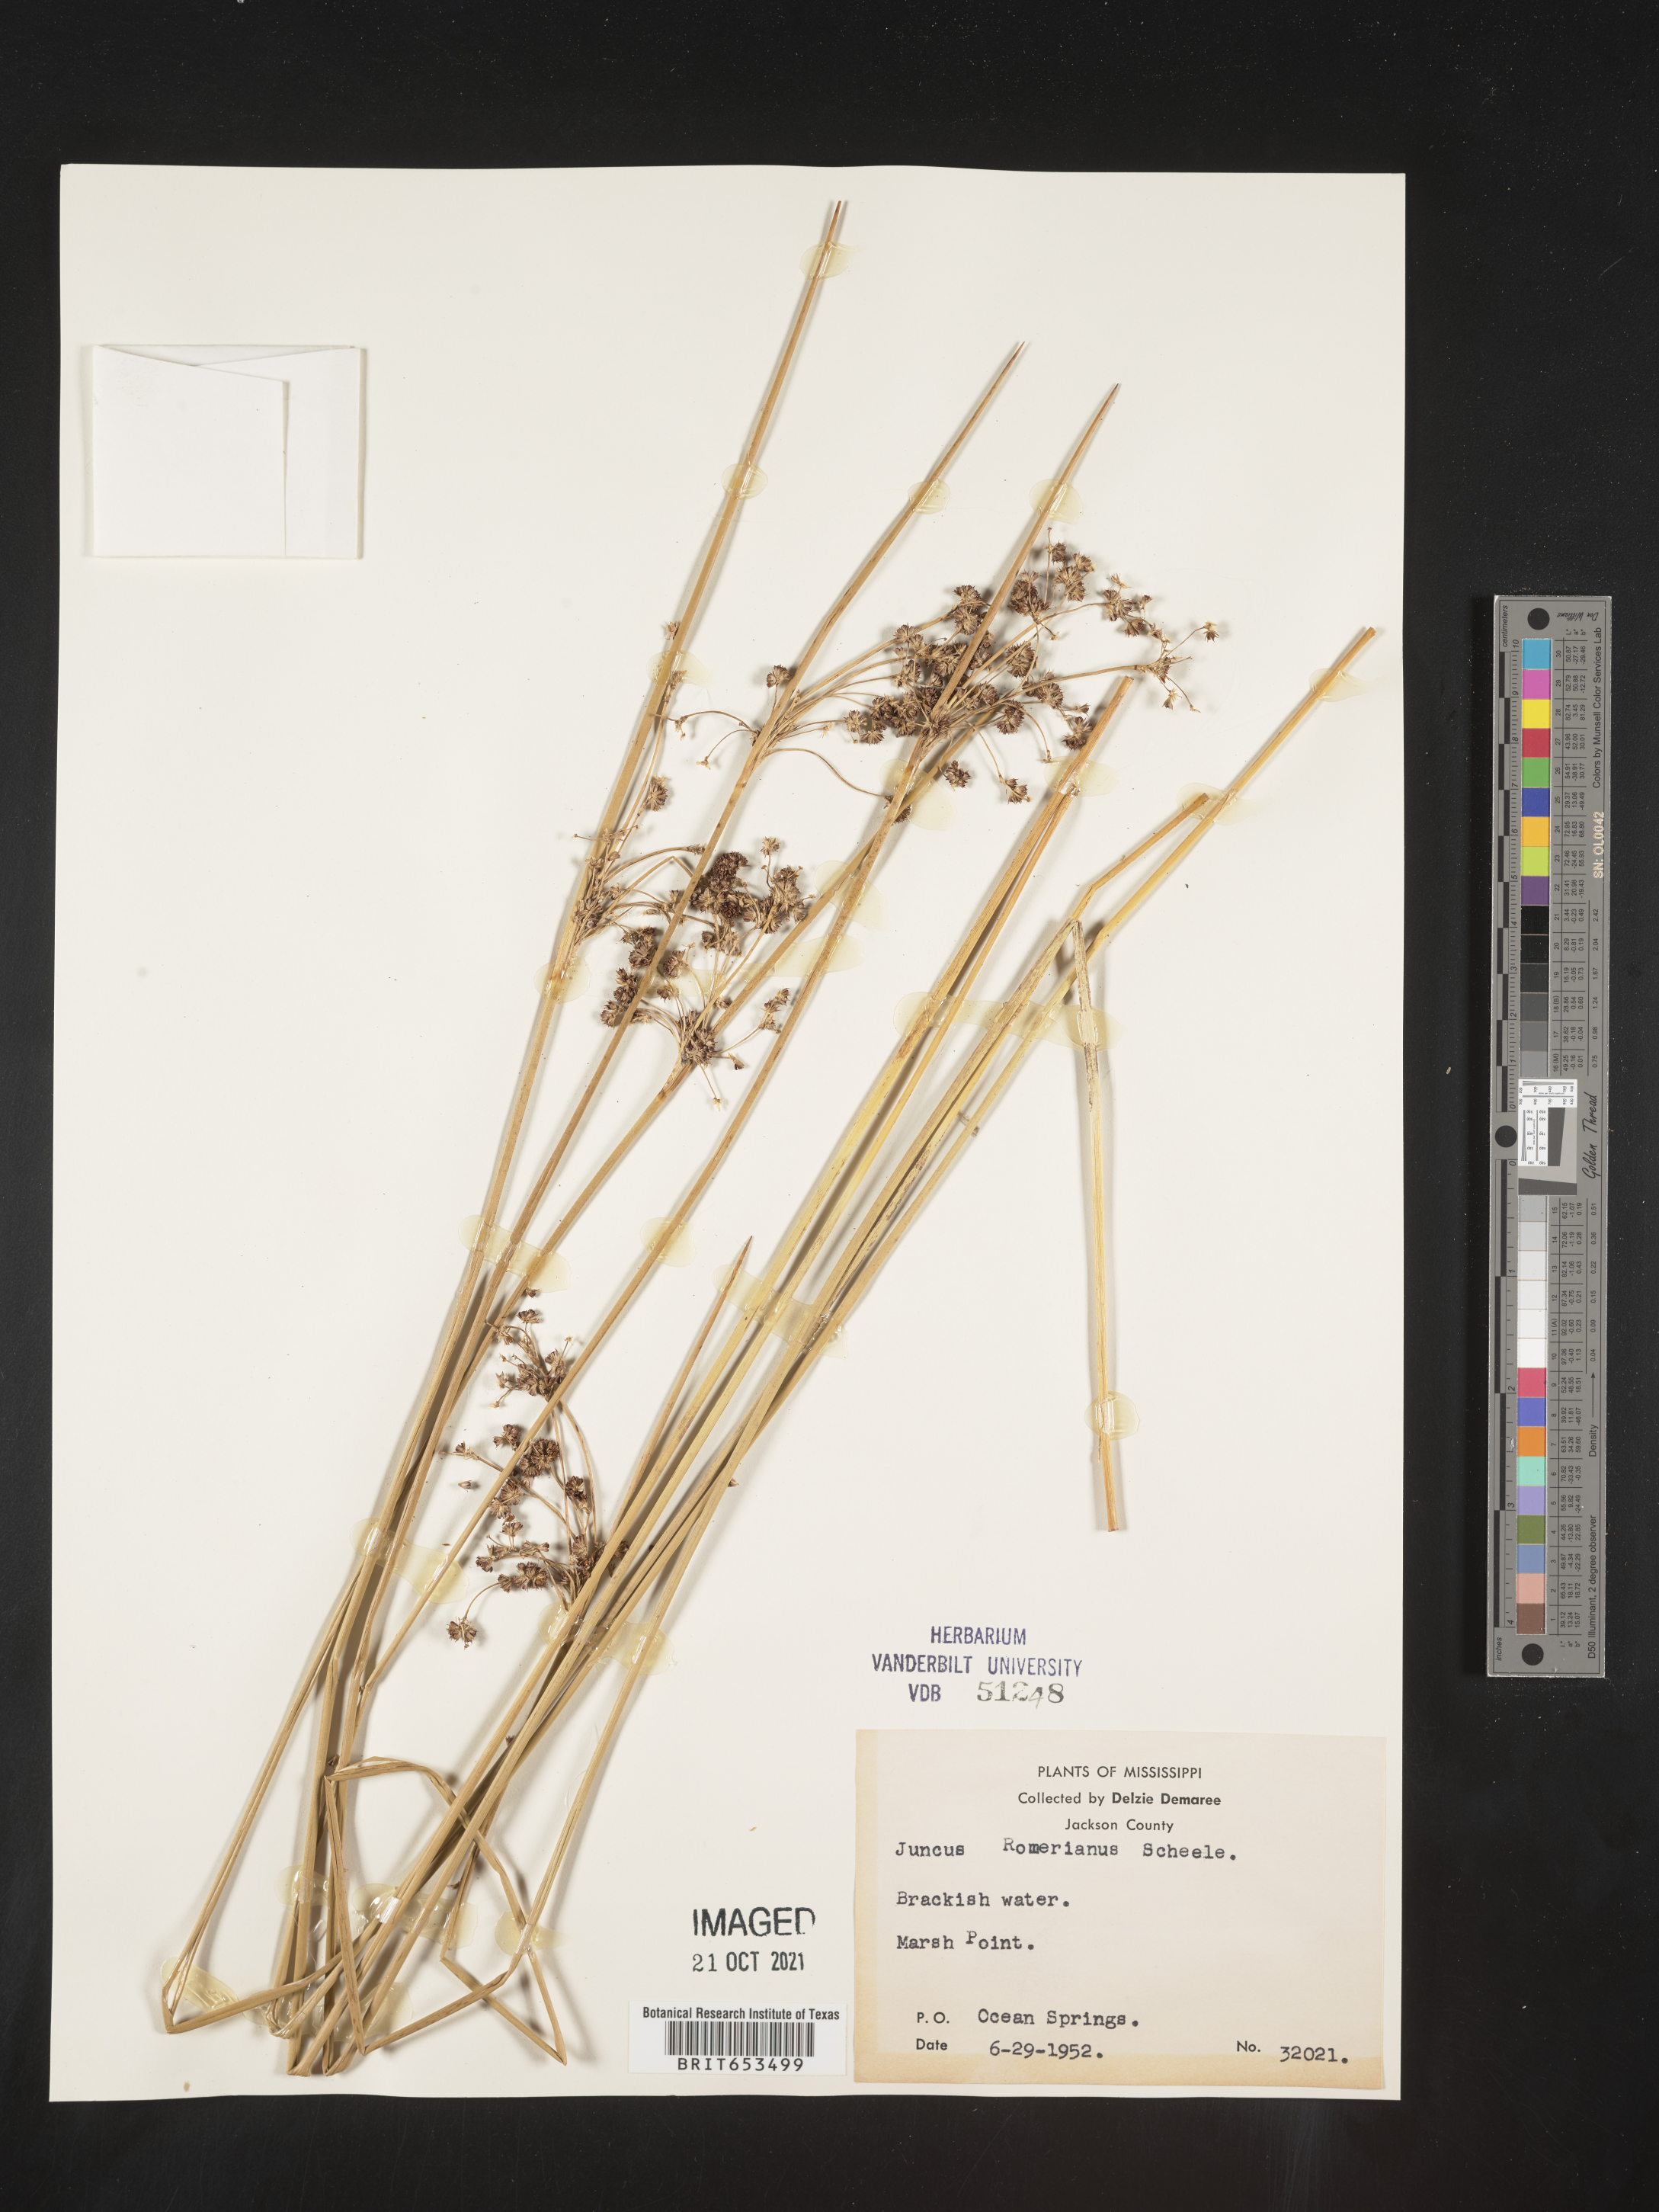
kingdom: Plantae
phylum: Tracheophyta
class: Liliopsida
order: Poales
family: Juncaceae
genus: Juncus
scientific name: Juncus roemerianus
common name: Roemer's rush
